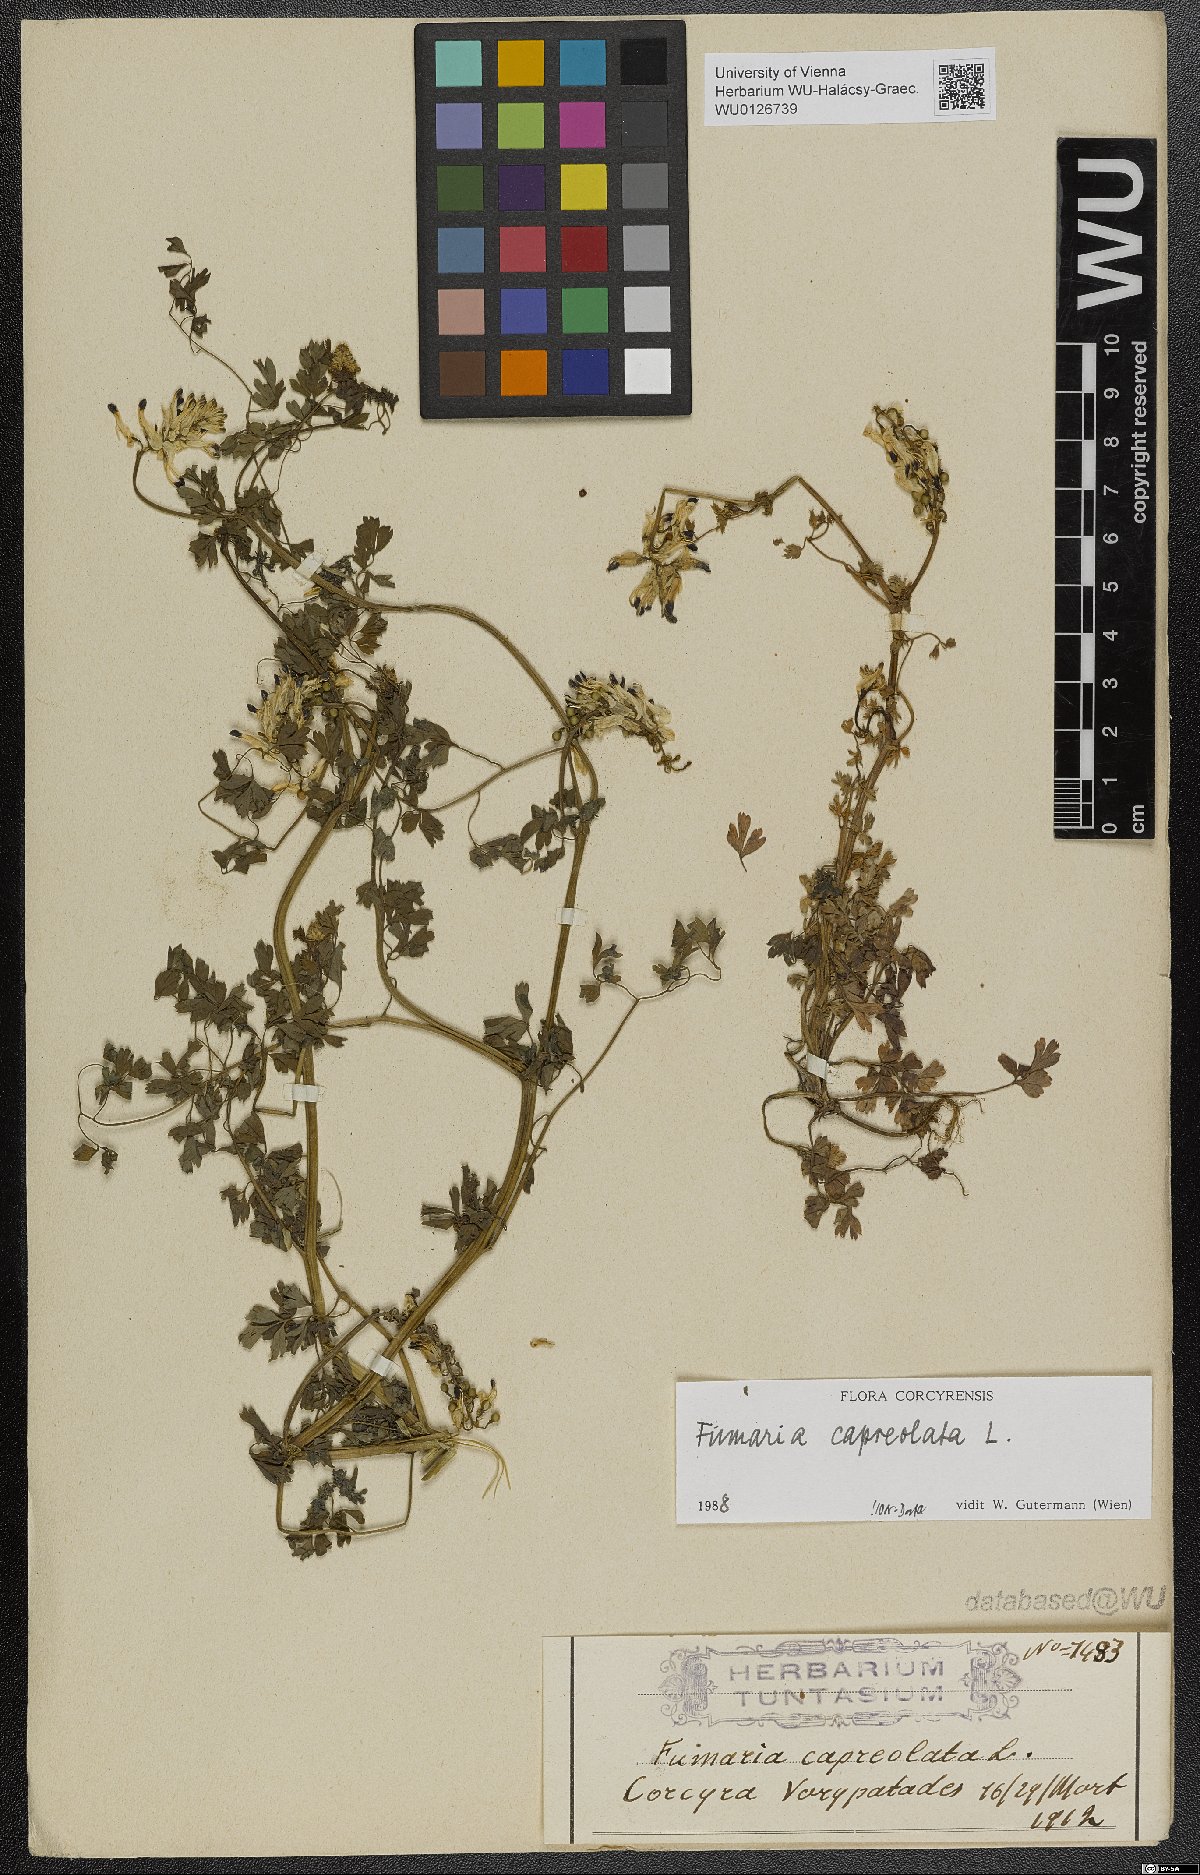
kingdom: Plantae
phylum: Tracheophyta
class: Magnoliopsida
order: Ranunculales
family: Papaveraceae
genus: Fumaria
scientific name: Fumaria capreolata
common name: White ramping-fumitory
